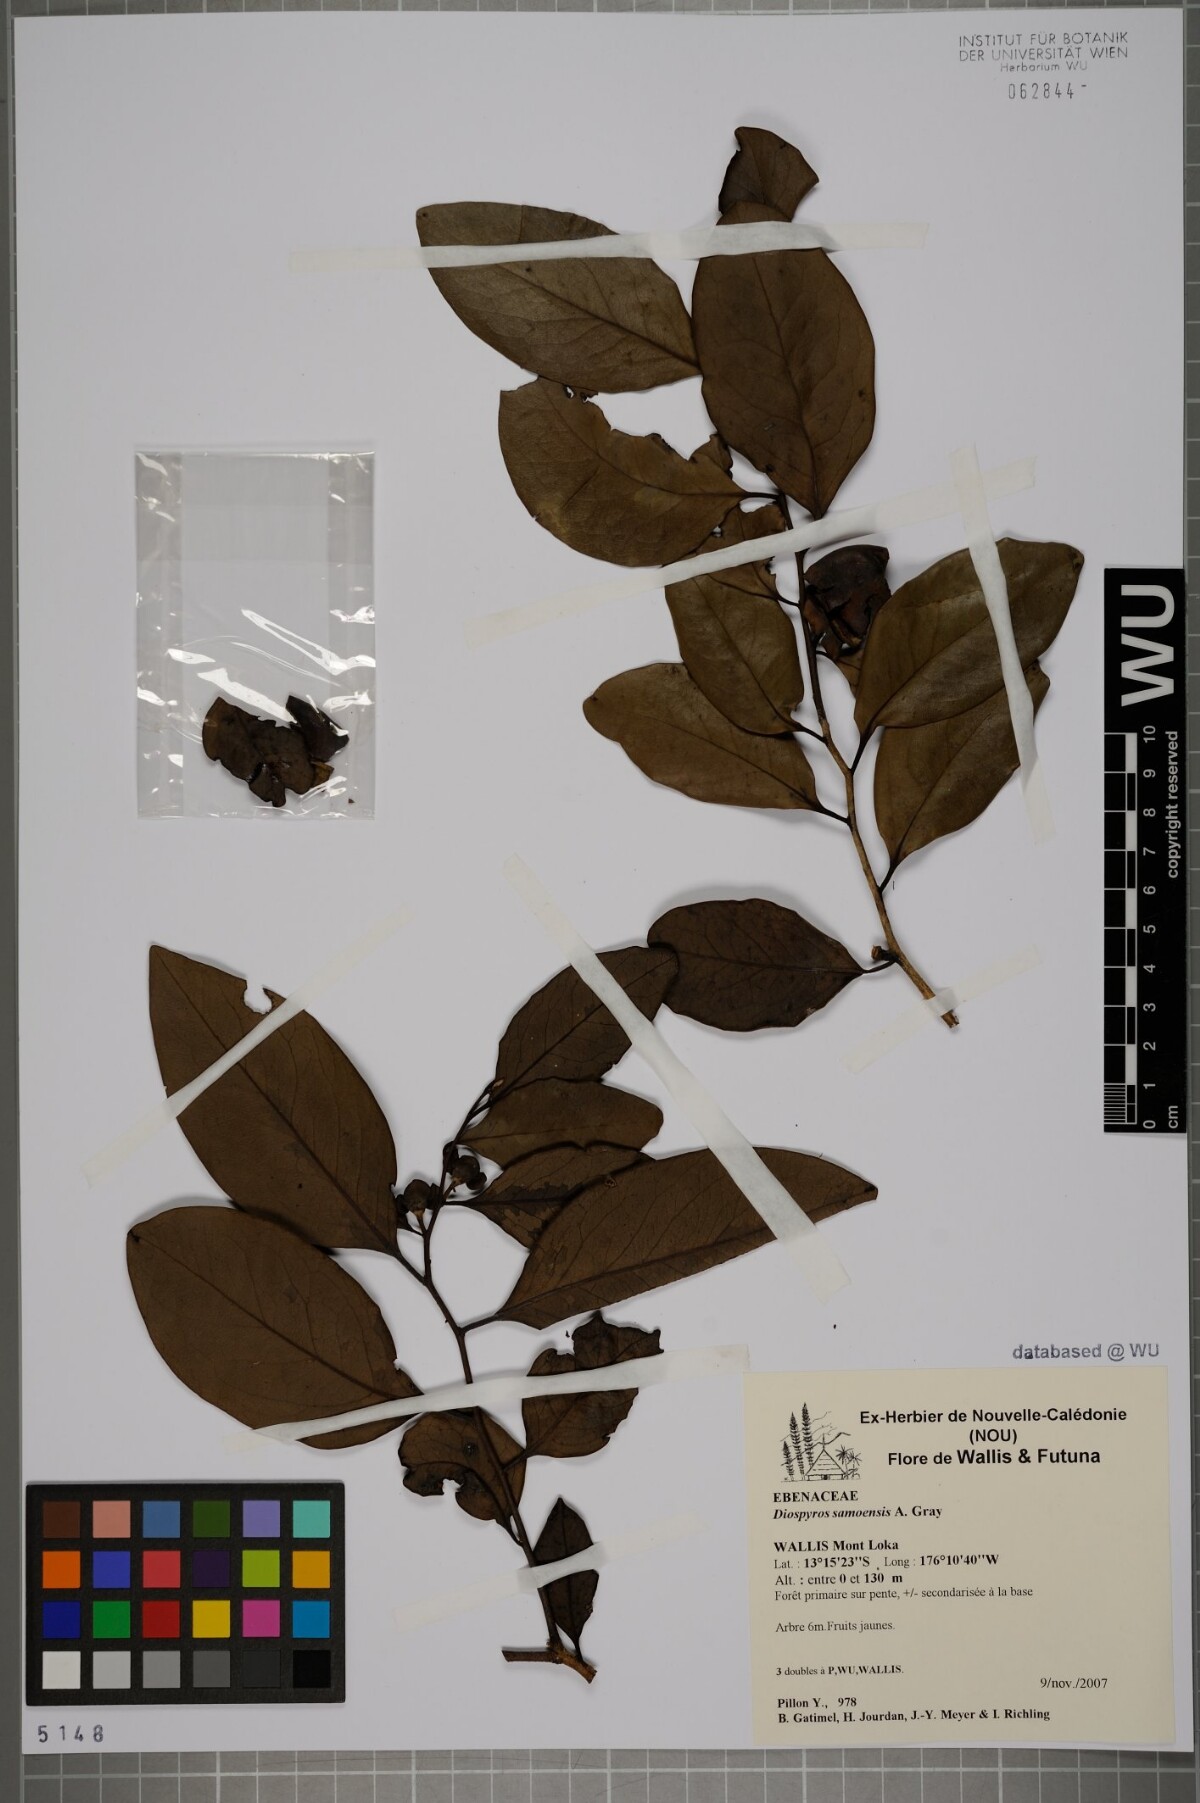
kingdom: Plantae
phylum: Tracheophyta
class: Magnoliopsida
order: Ericales
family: Ebenaceae
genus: Diospyros
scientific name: Diospyros samoensis
